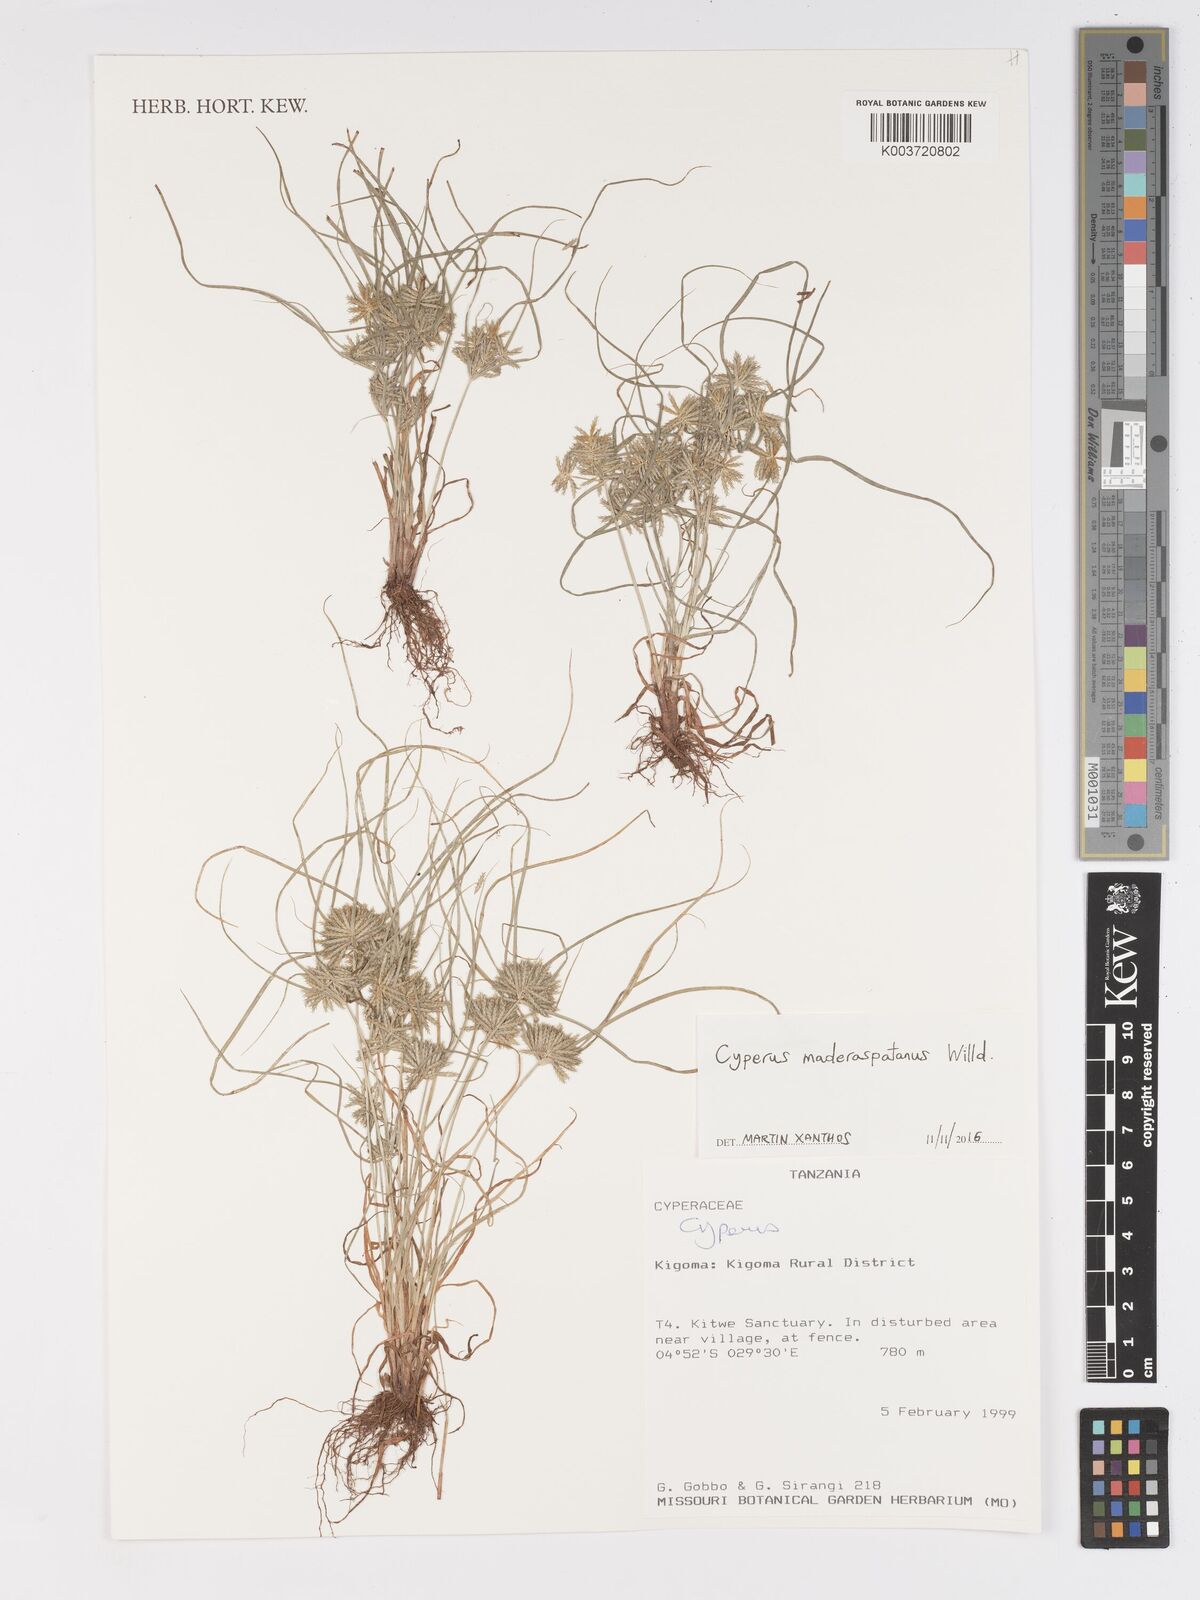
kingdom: Plantae
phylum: Tracheophyta
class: Liliopsida
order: Poales
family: Cyperaceae
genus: Cyperus
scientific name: Cyperus maderaspatanus
